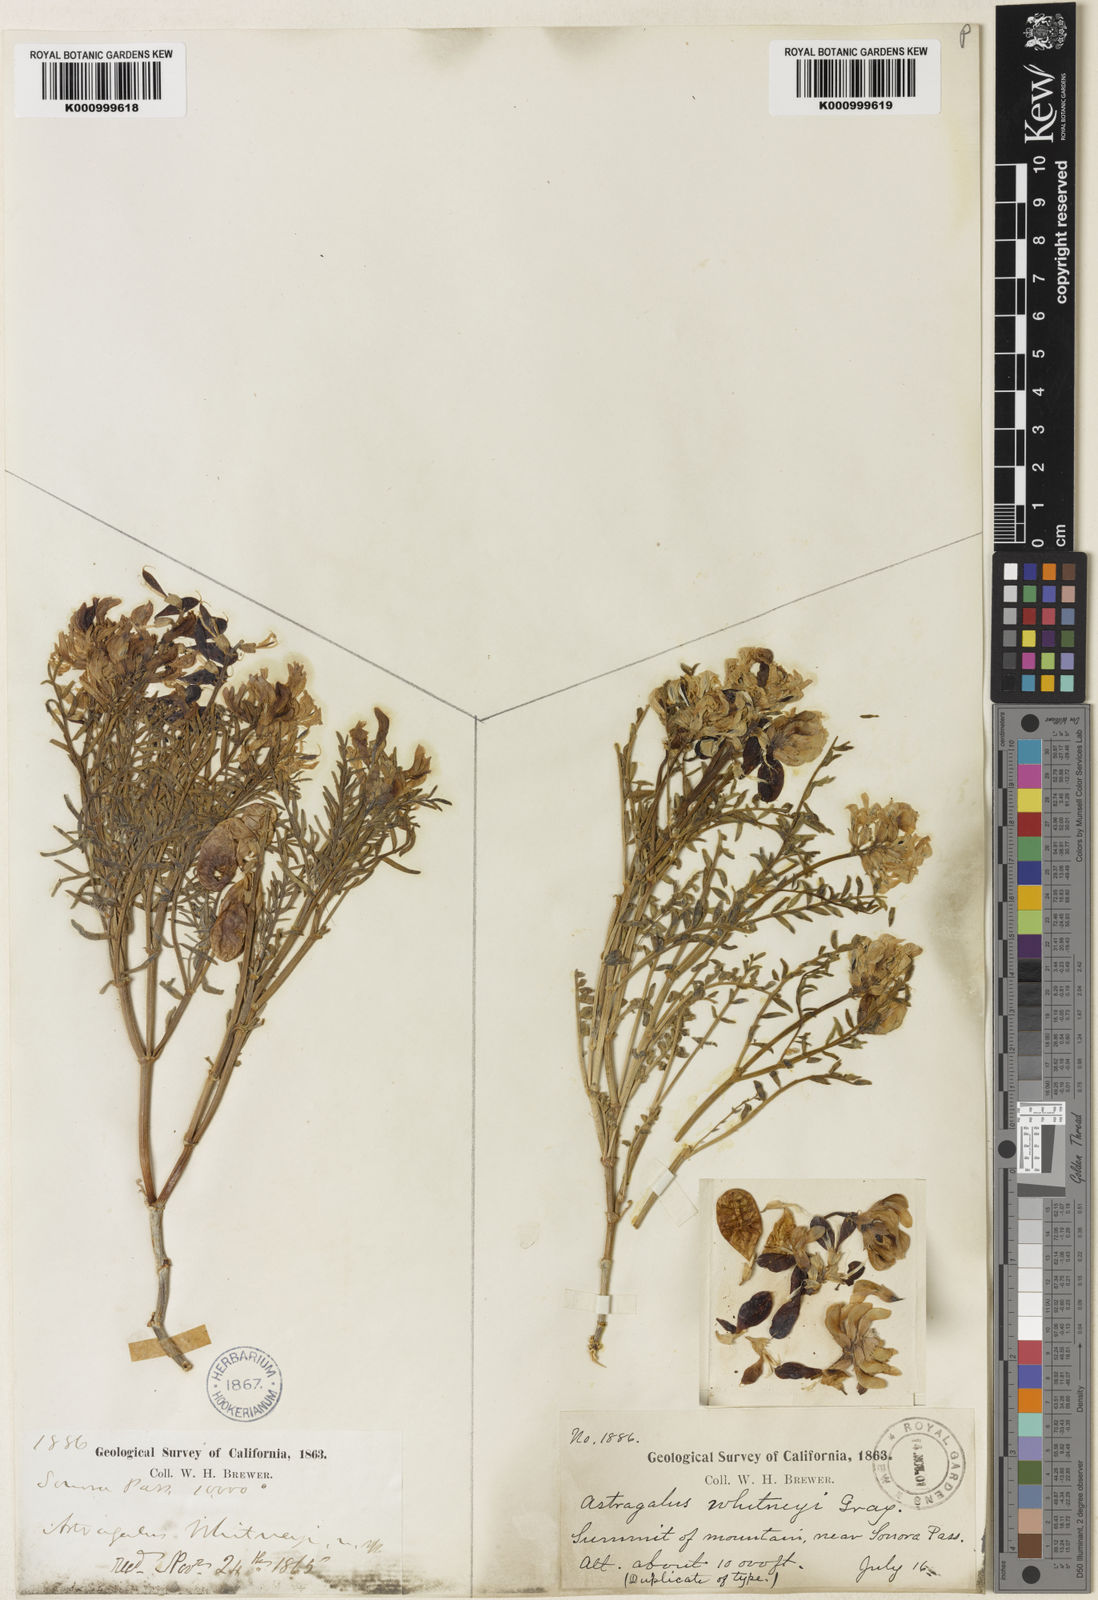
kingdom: Plantae
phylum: Tracheophyta
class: Magnoliopsida
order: Fabales
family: Fabaceae
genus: Astragalus
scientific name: Astragalus whitneyi
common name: Balloonpod milkvetch
